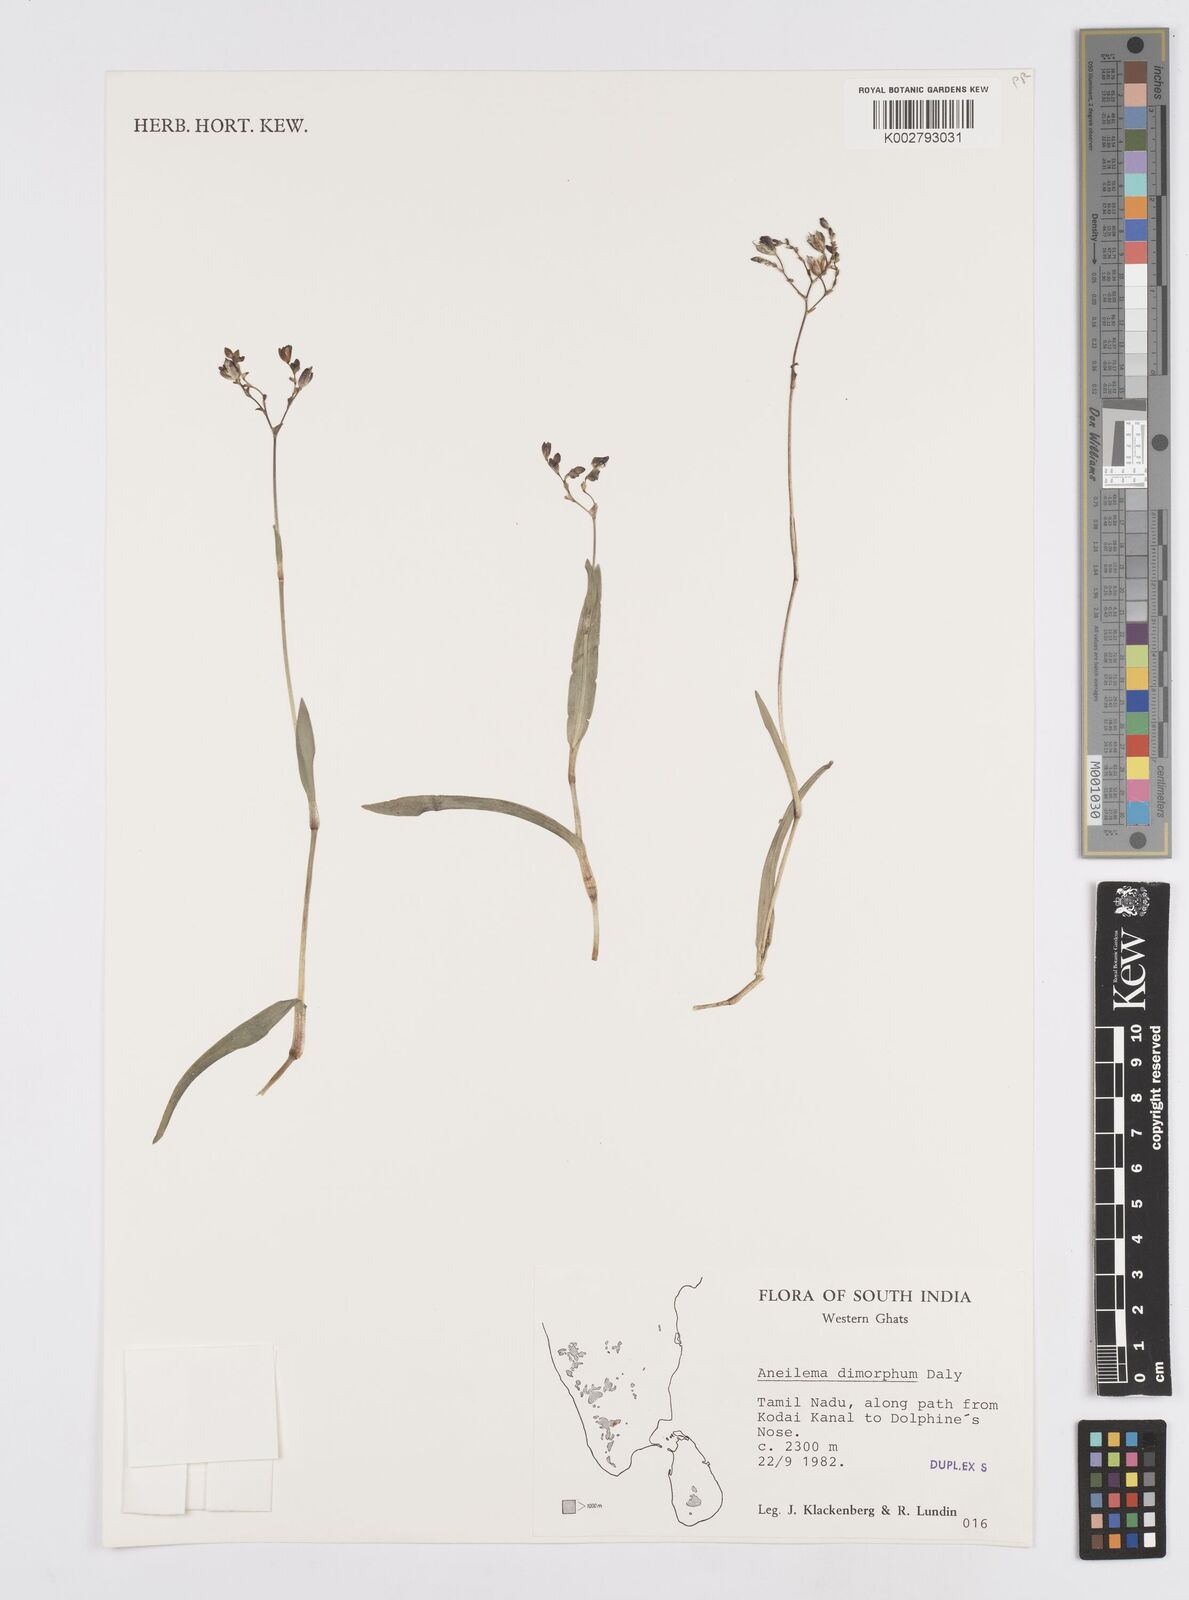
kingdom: Plantae
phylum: Tracheophyta
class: Liliopsida
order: Commelinales
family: Commelinaceae
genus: Murdannia
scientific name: Murdannia dimorpha
